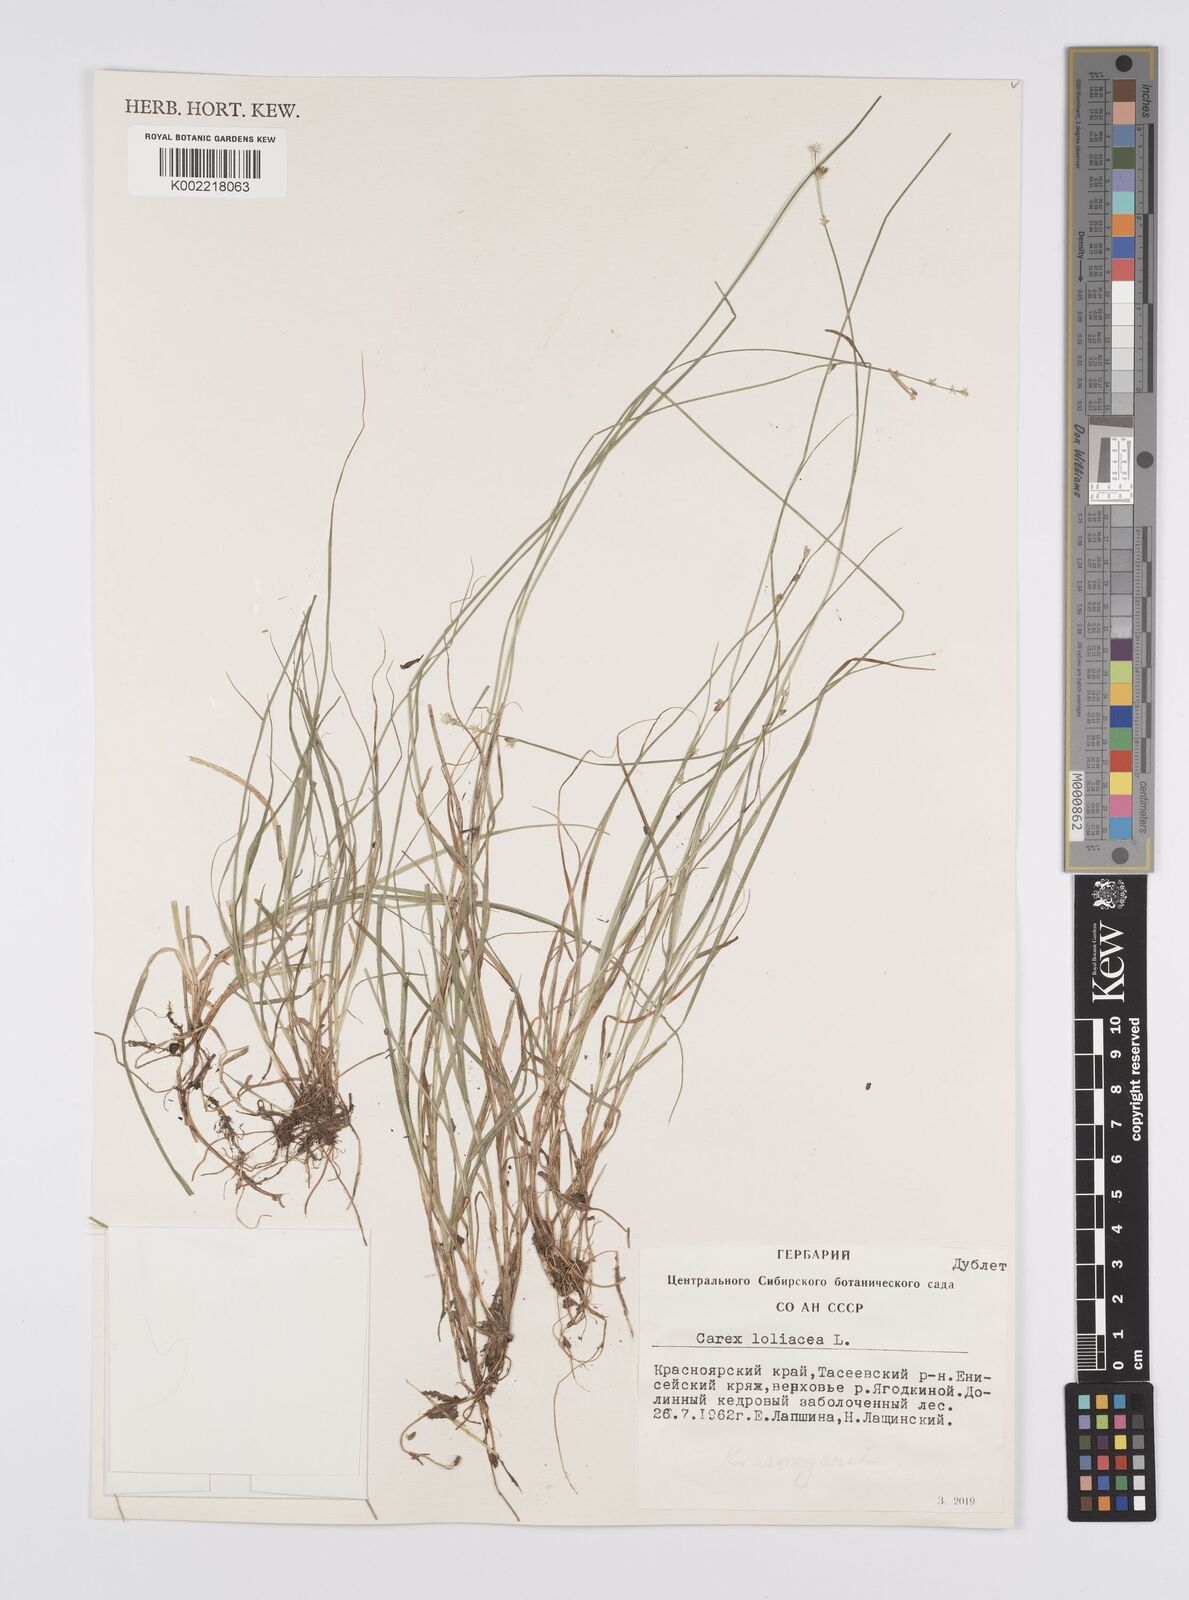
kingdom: Plantae
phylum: Tracheophyta
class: Liliopsida
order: Poales
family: Cyperaceae
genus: Carex
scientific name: Carex loliacea
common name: Ryegrass sedge
